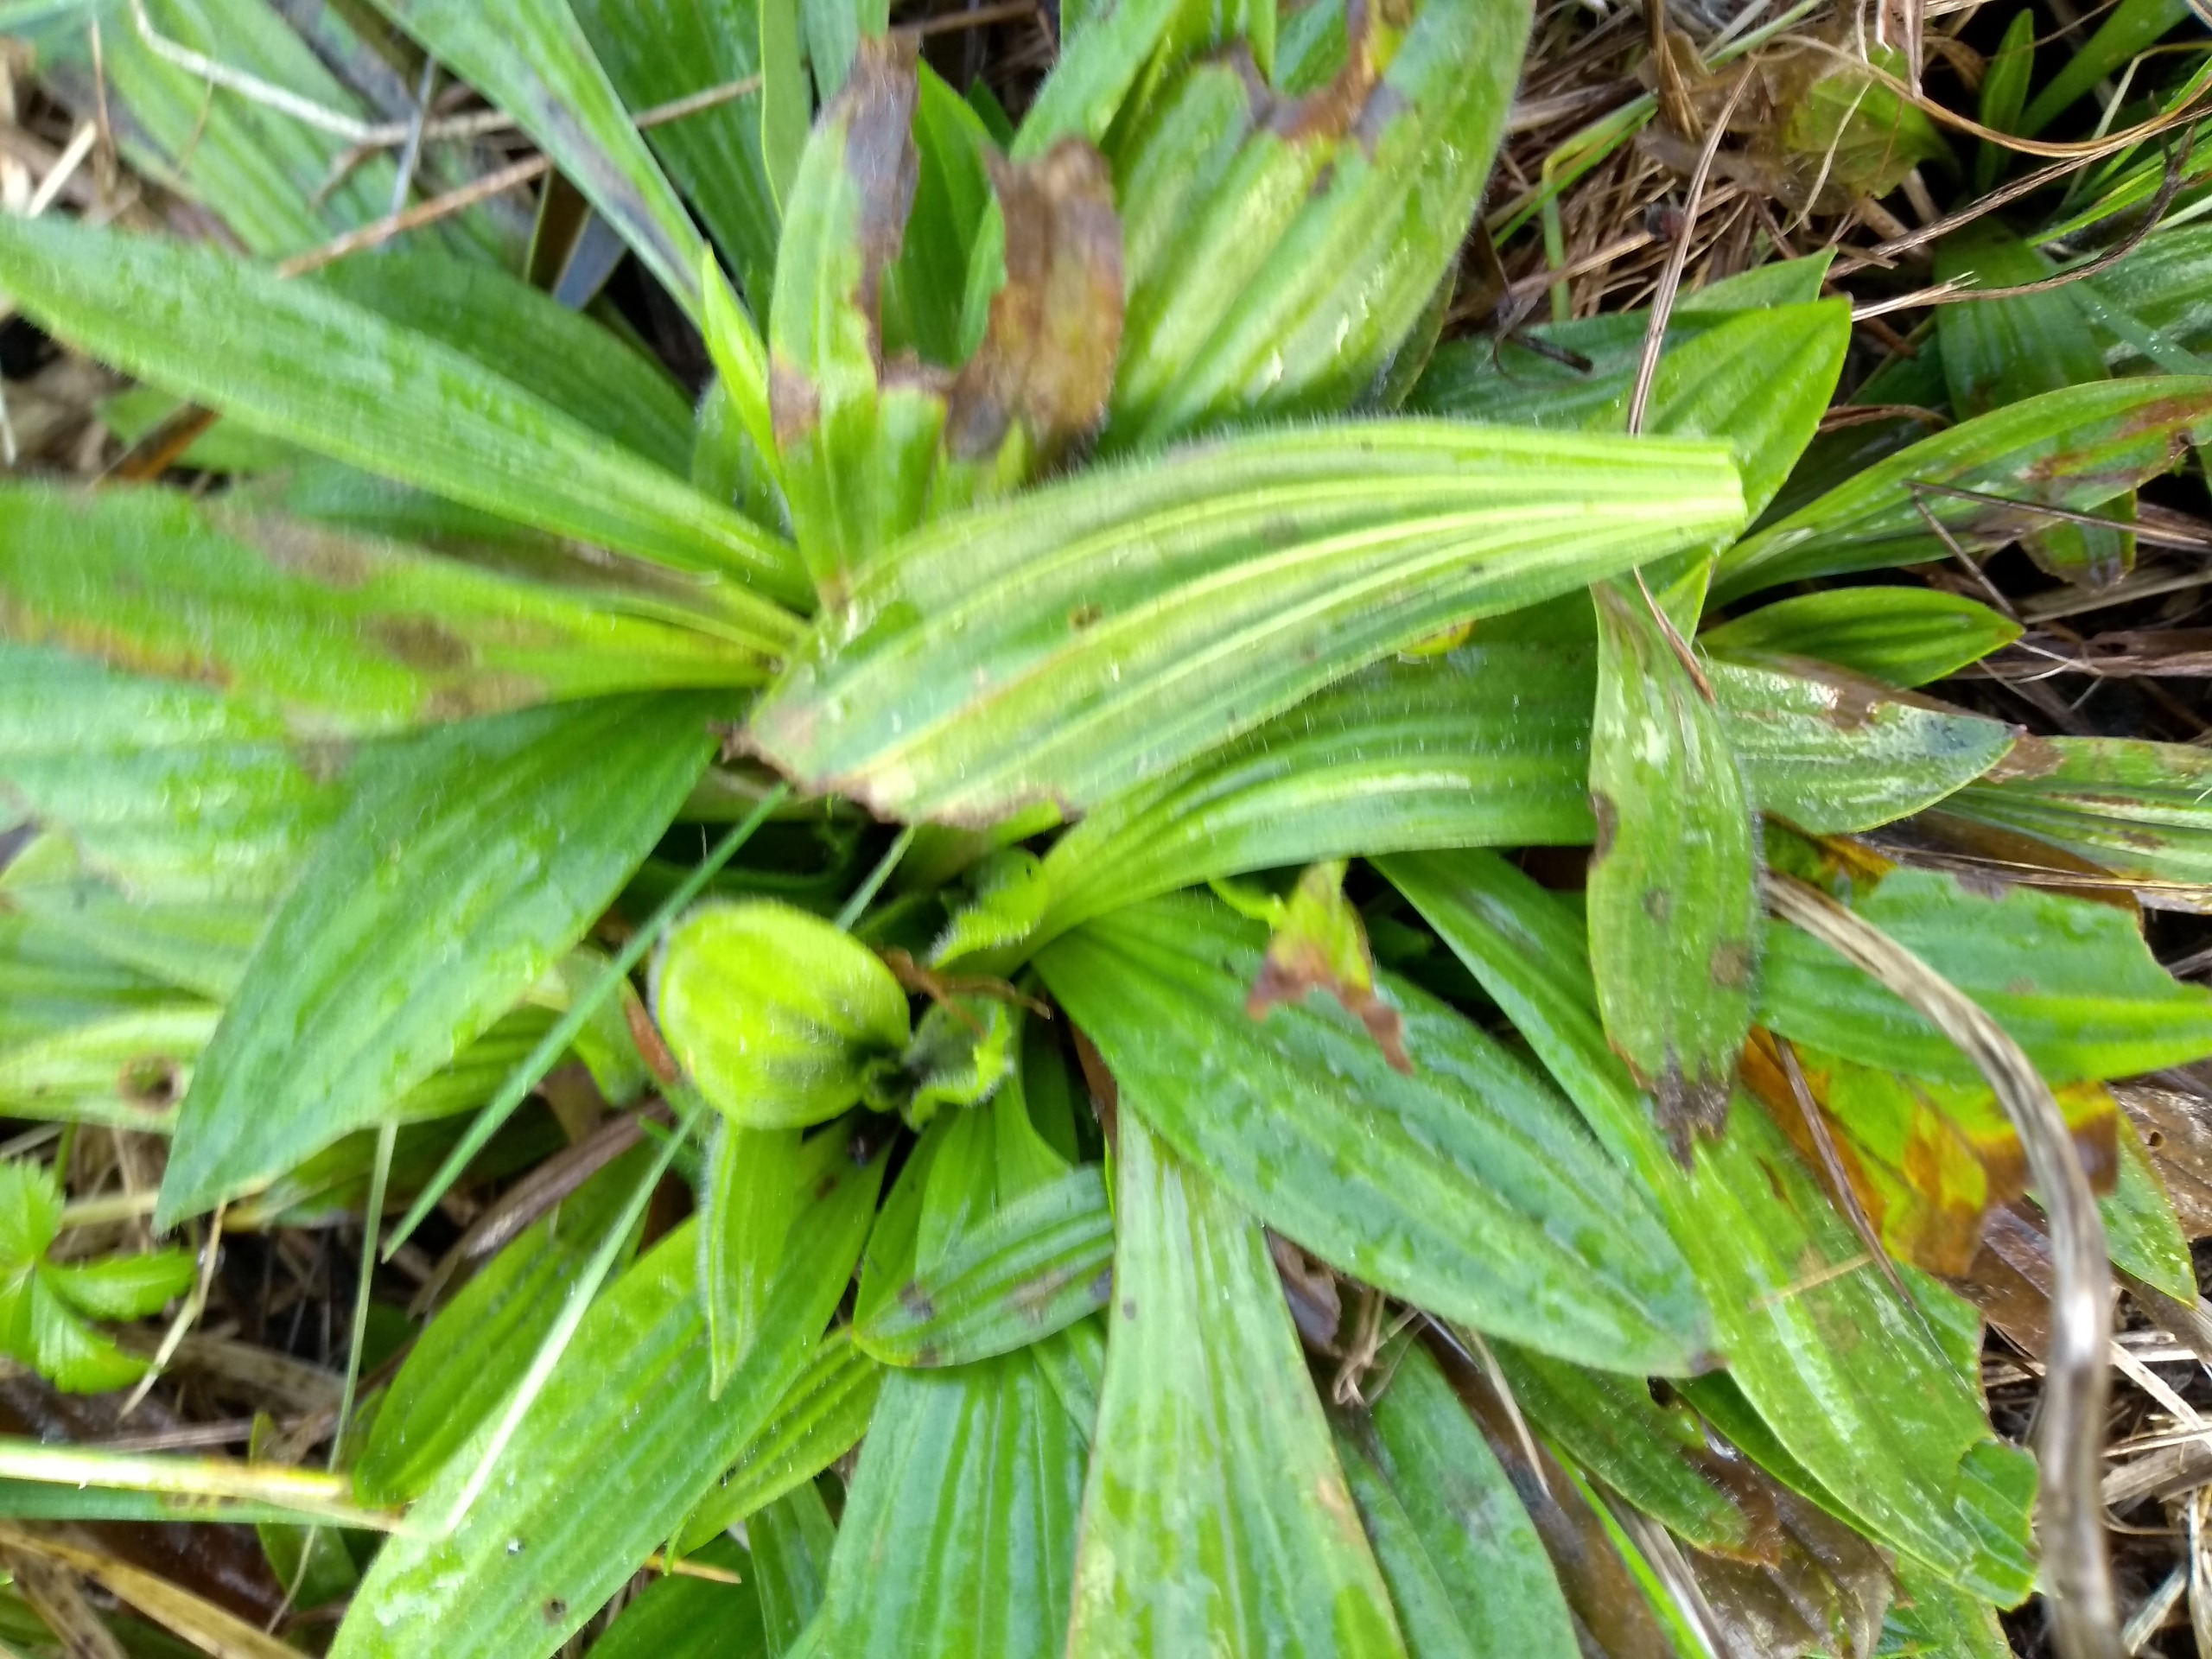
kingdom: Plantae
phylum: Tracheophyta
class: Magnoliopsida
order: Lamiales
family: Plantaginaceae
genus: Plantago
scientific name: Plantago lanceolata
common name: Lancet-vejbred
